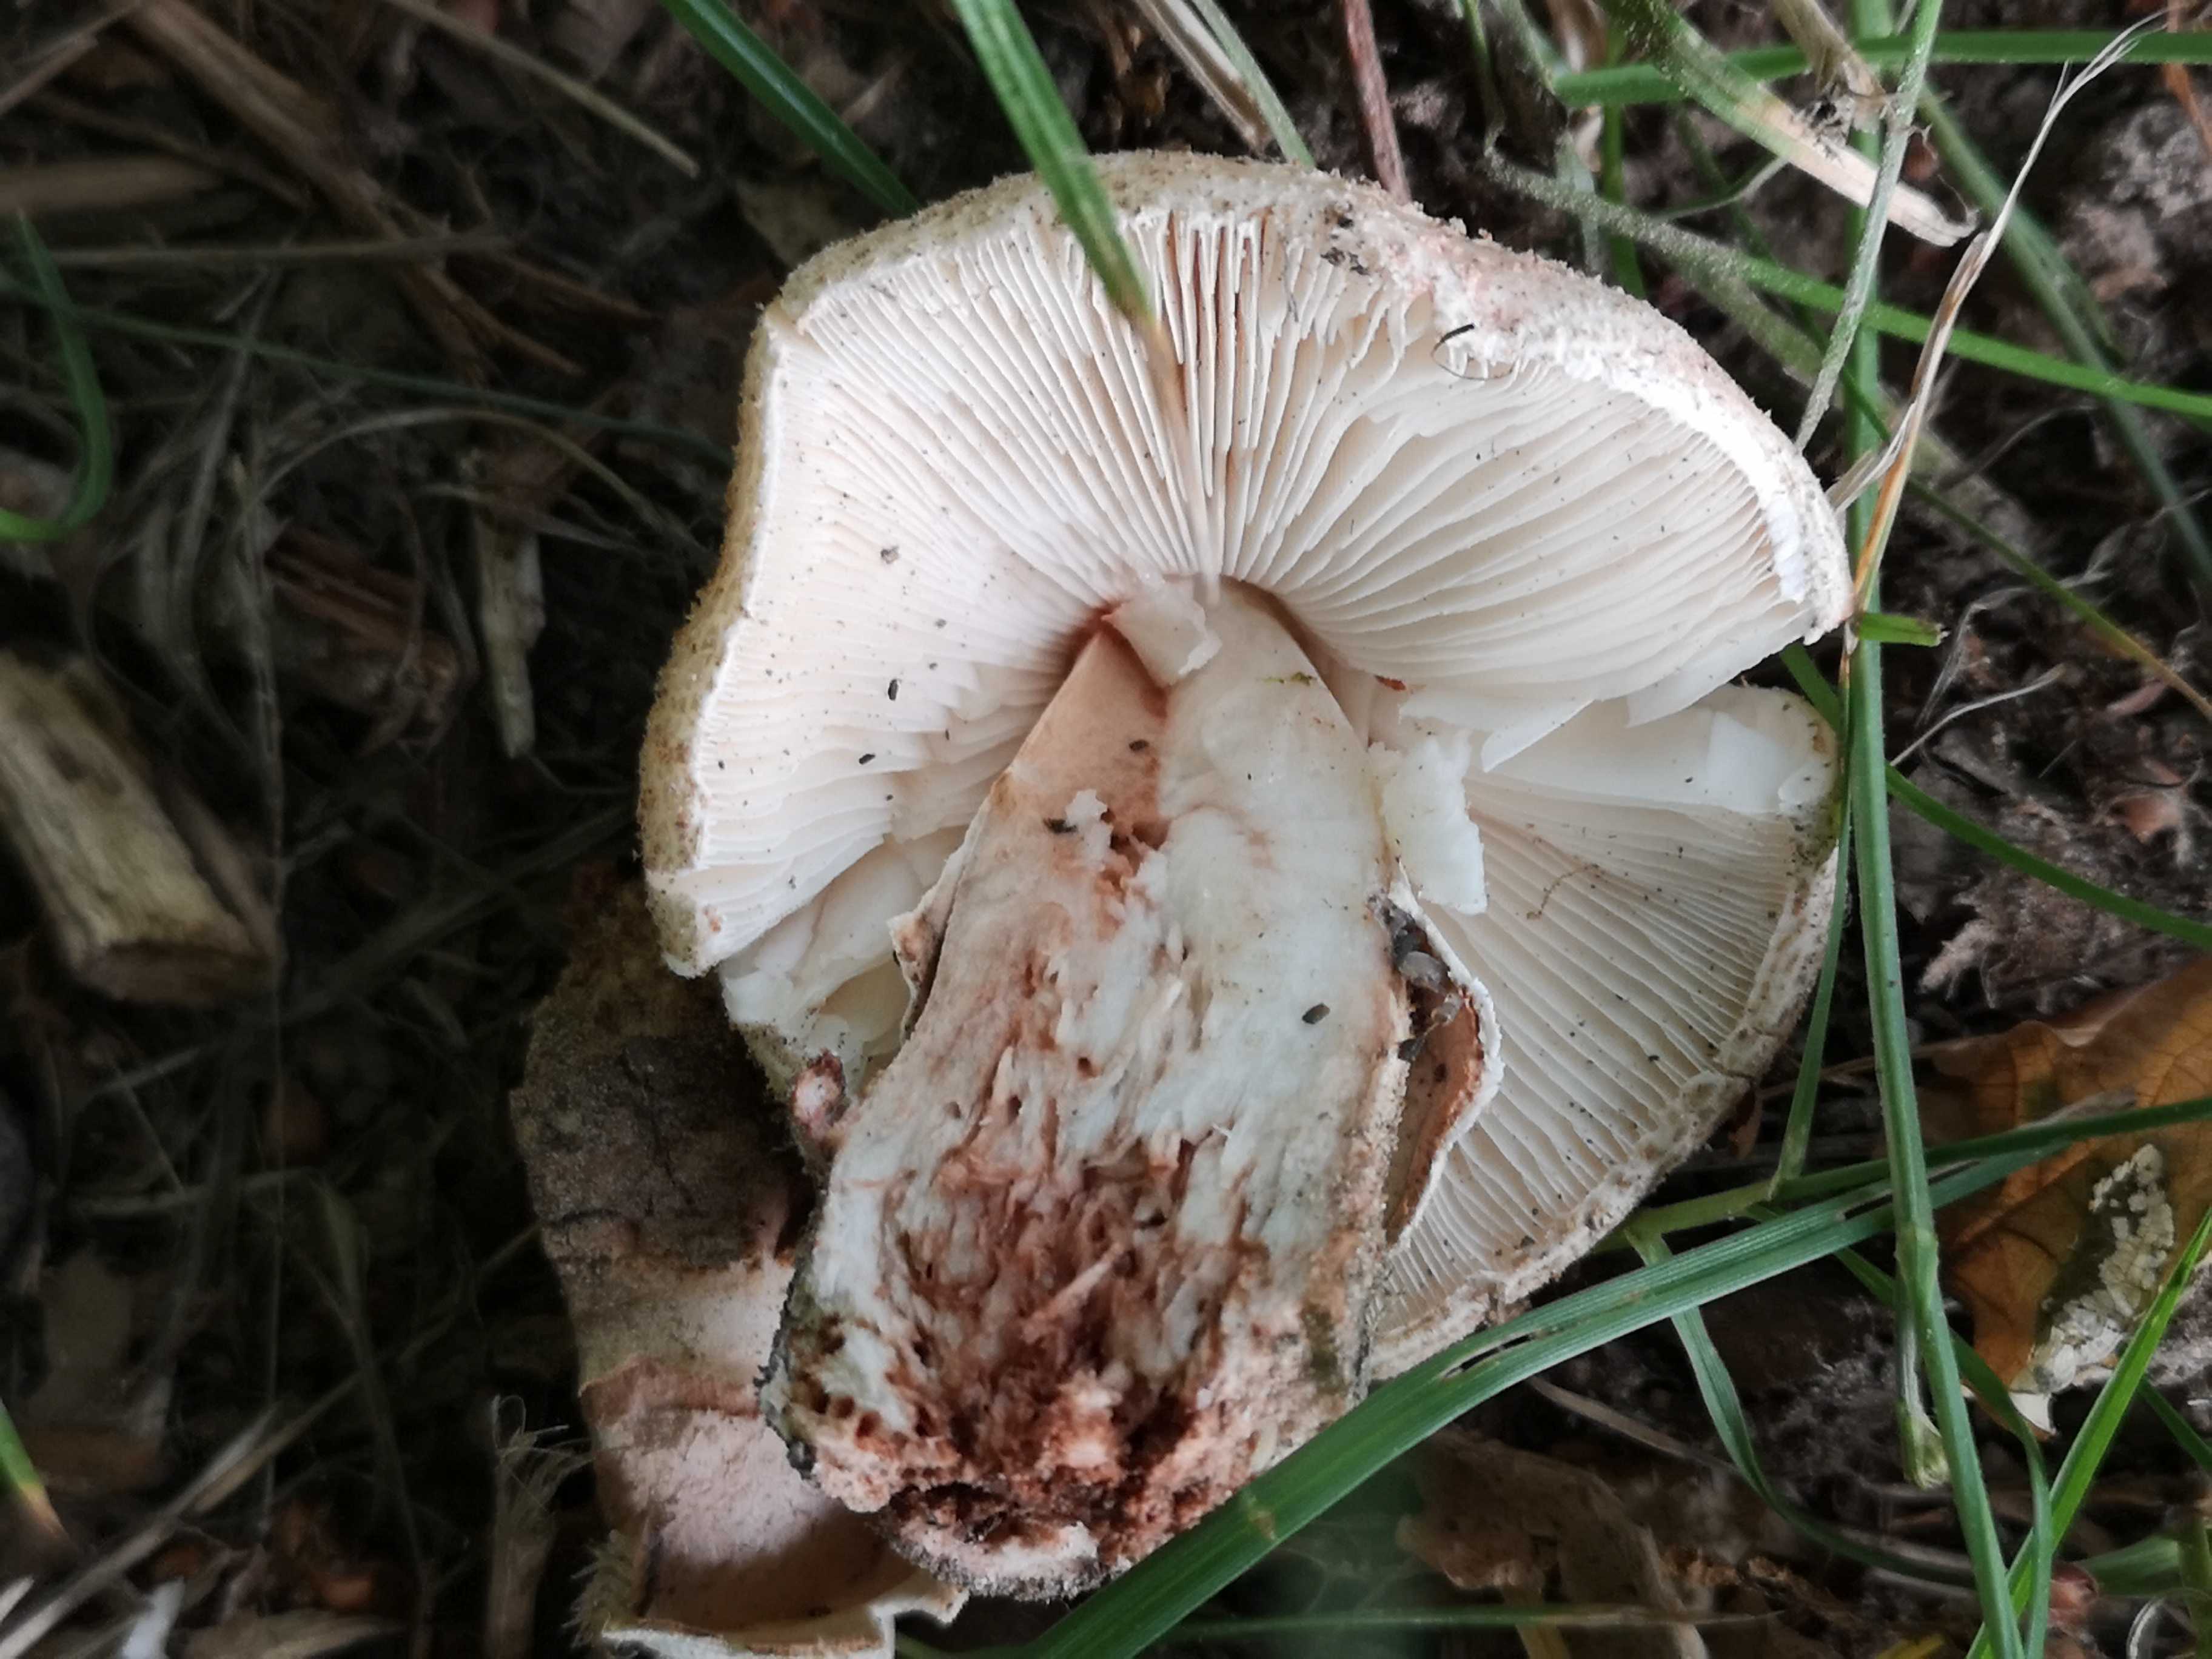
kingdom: Fungi
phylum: Basidiomycota
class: Agaricomycetes
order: Agaricales
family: Amanitaceae
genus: Amanita
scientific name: Amanita rubescens
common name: rødmende fluesvamp
